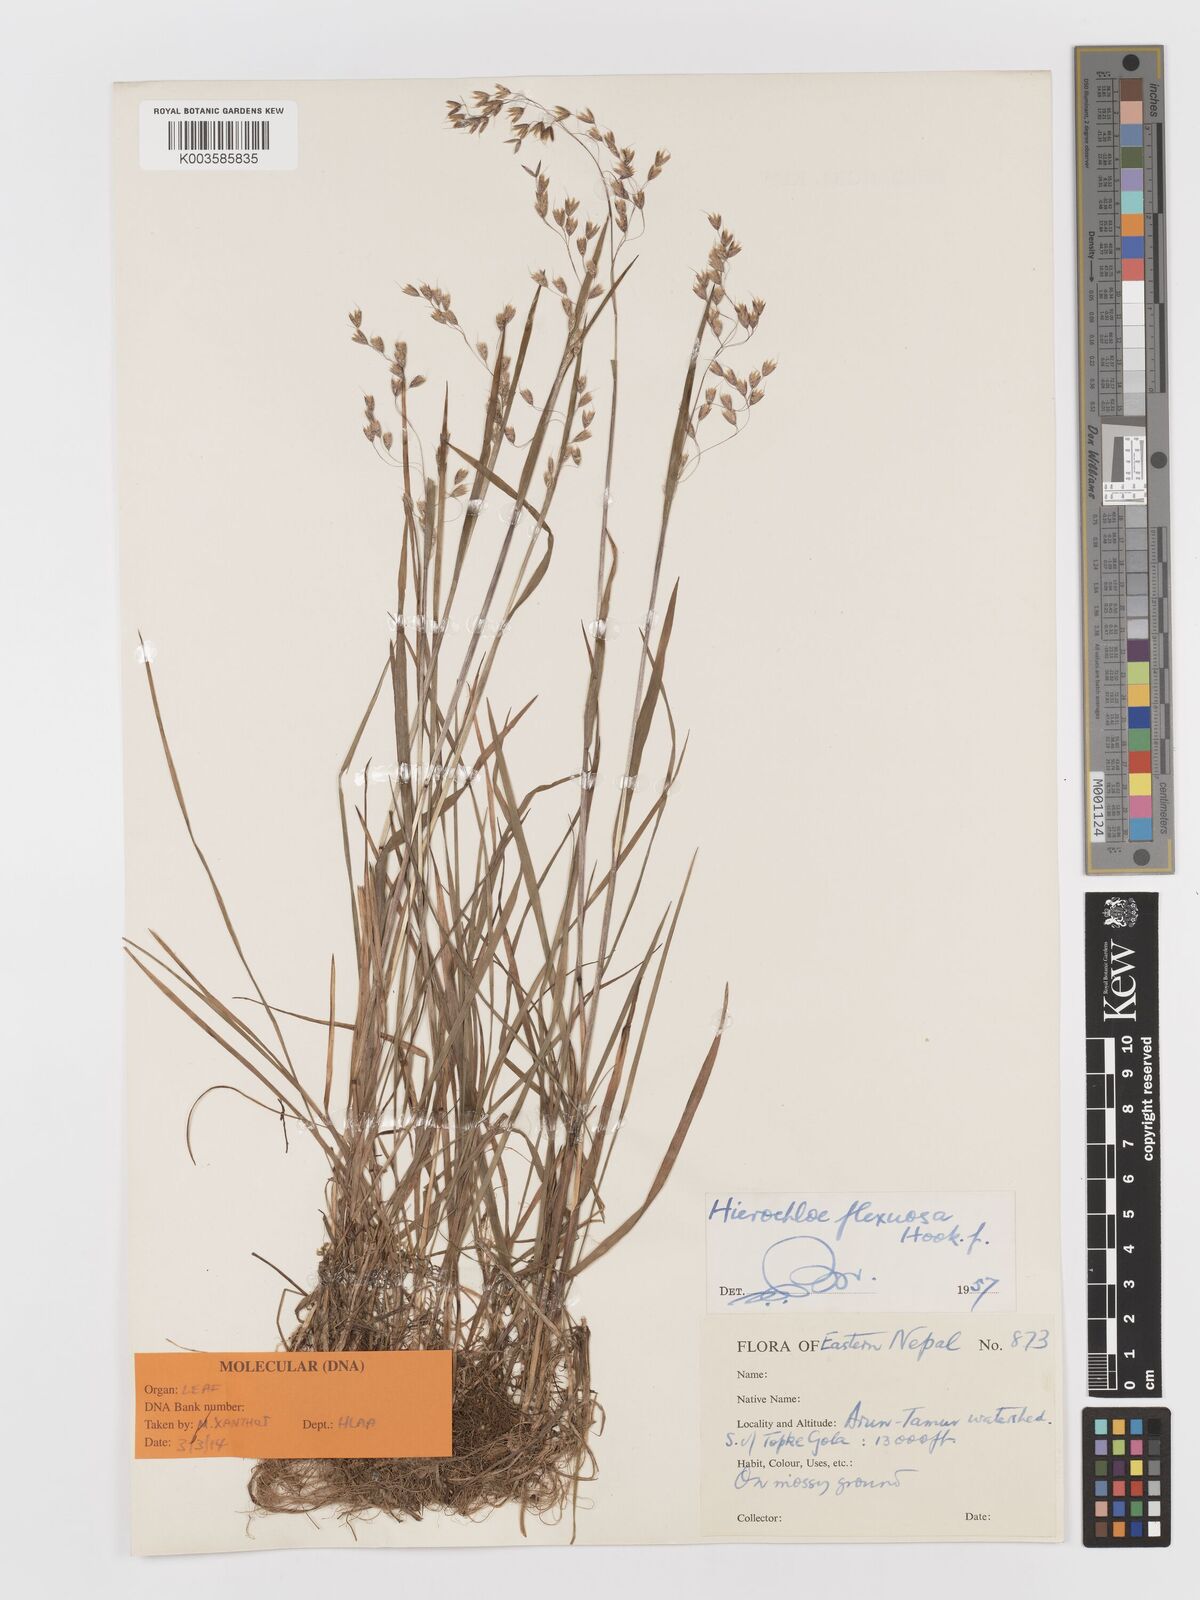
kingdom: Plantae
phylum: Tracheophyta
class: Liliopsida
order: Poales
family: Poaceae
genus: Anthoxanthum
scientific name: Anthoxanthum flexuosum
